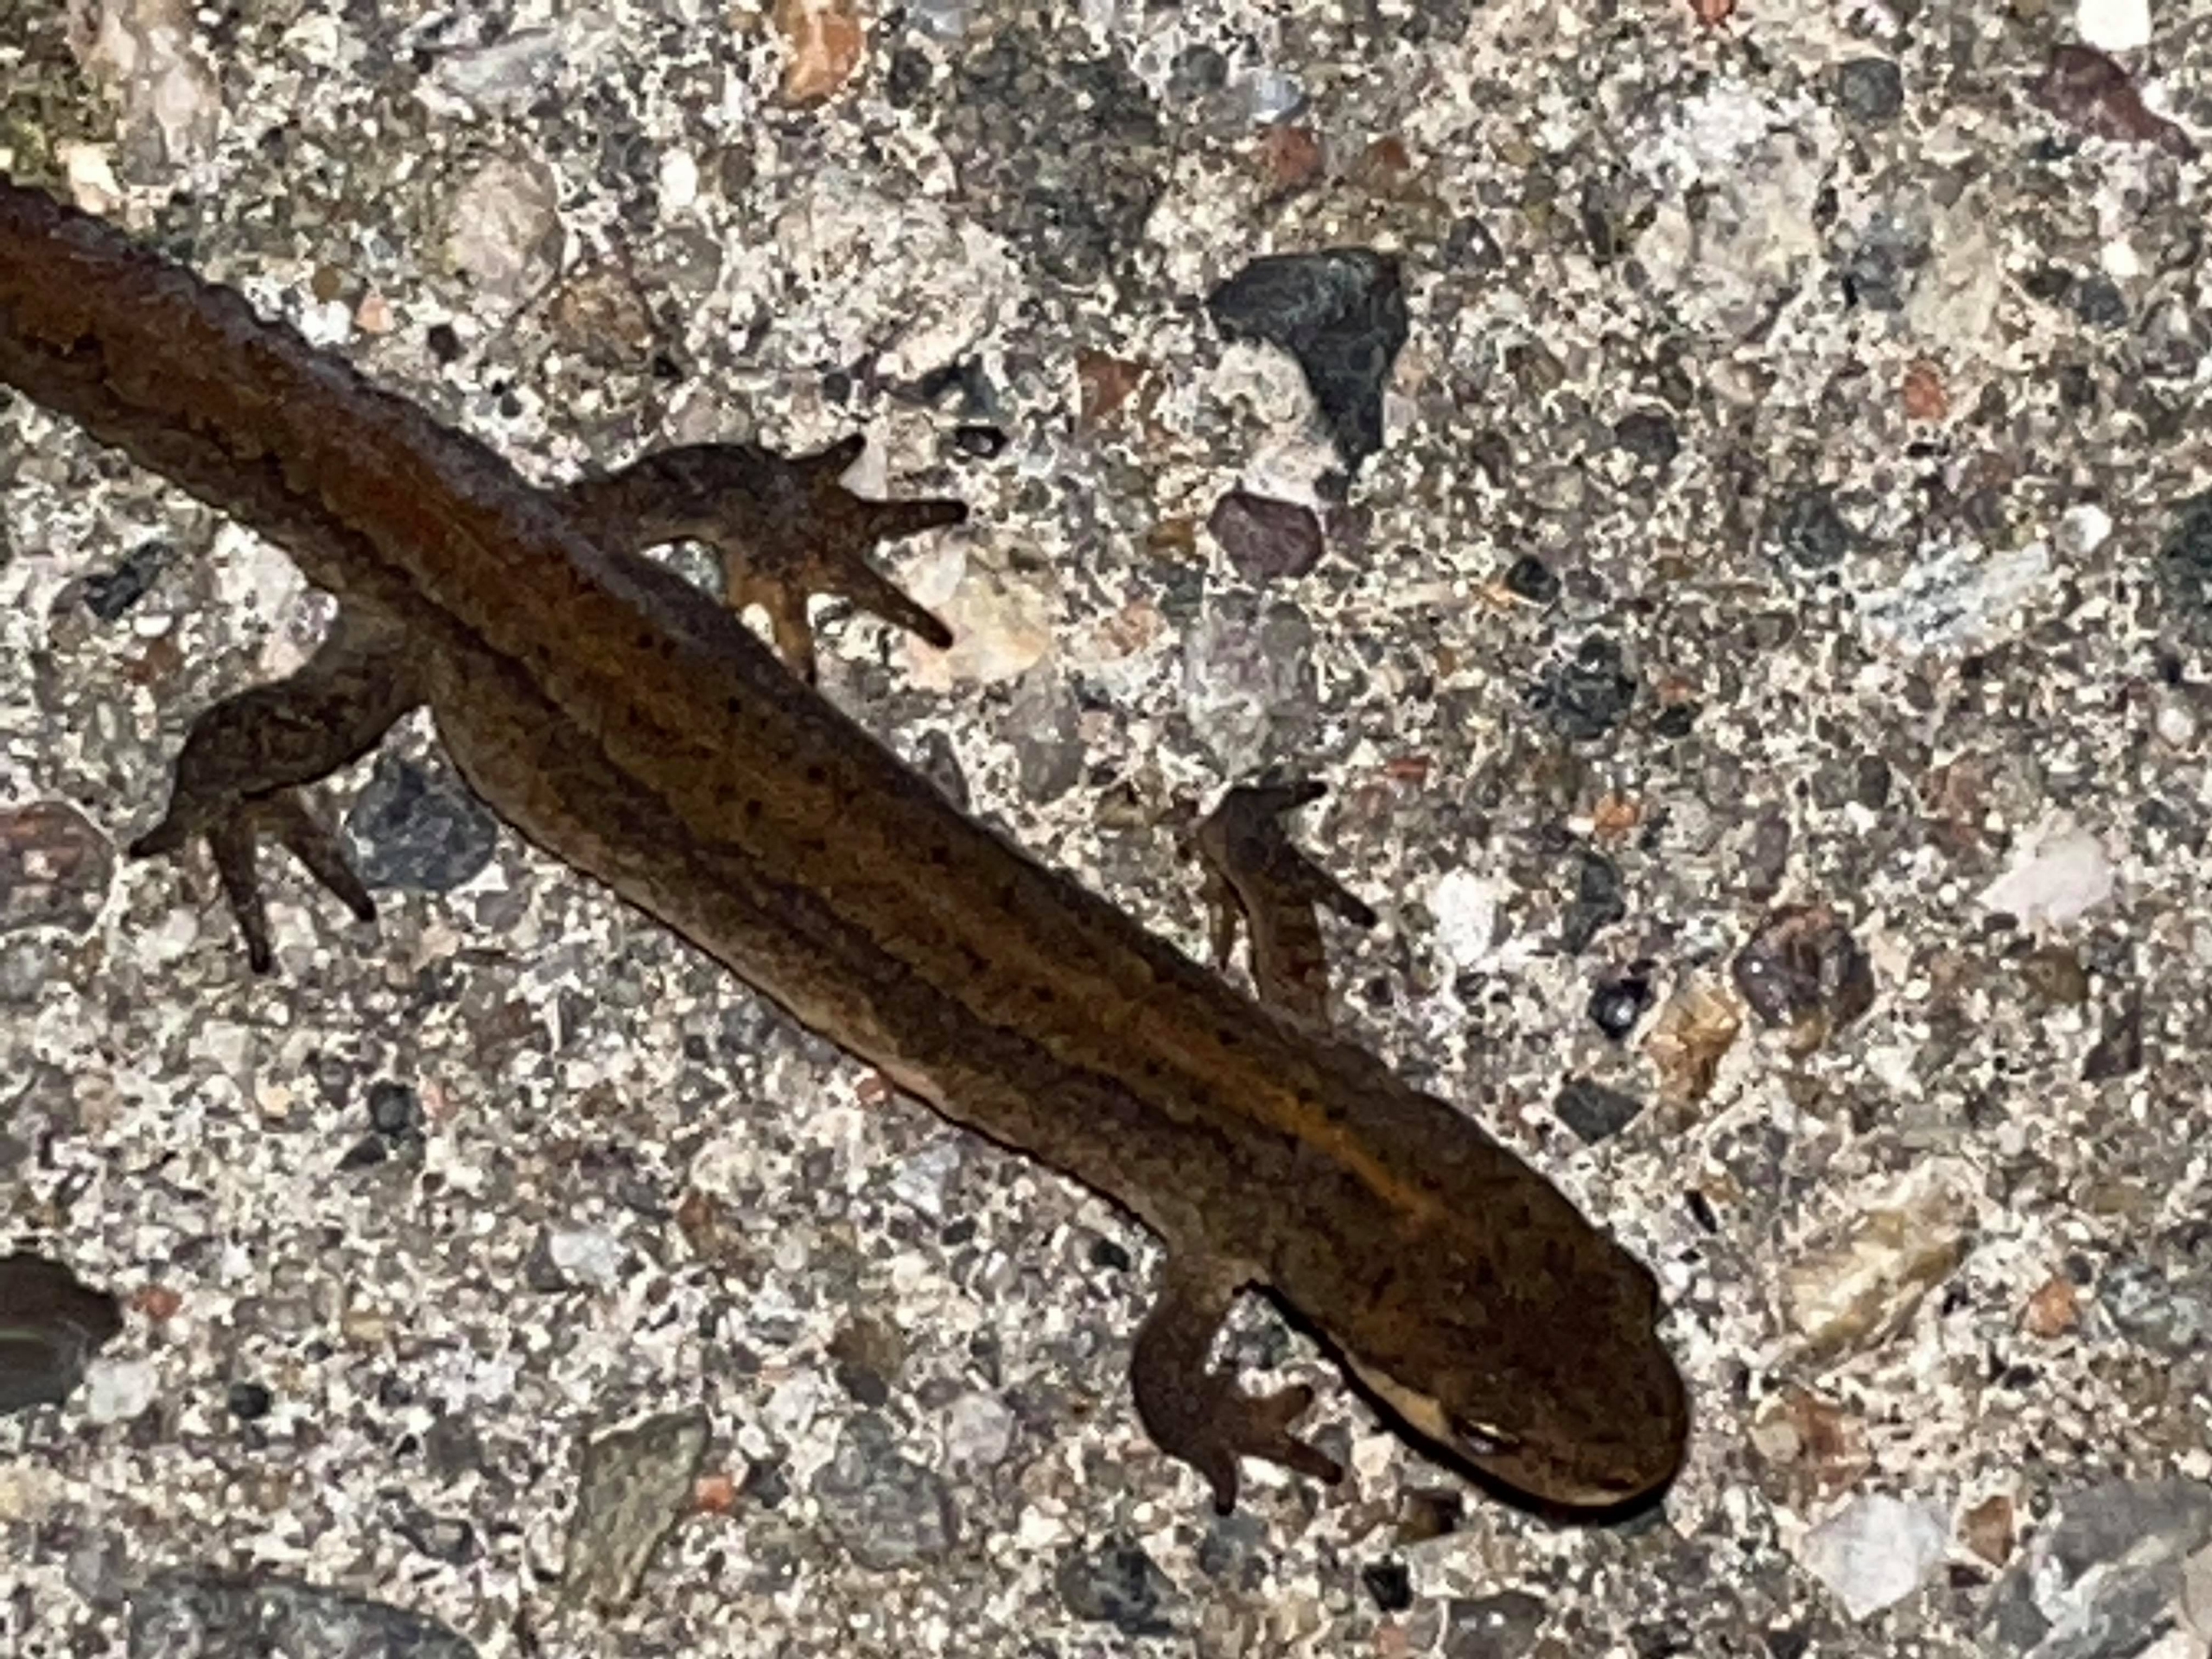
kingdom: Animalia
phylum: Chordata
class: Amphibia
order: Caudata
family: Salamandridae
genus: Lissotriton
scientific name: Lissotriton vulgaris
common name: Lille vandsalamander
